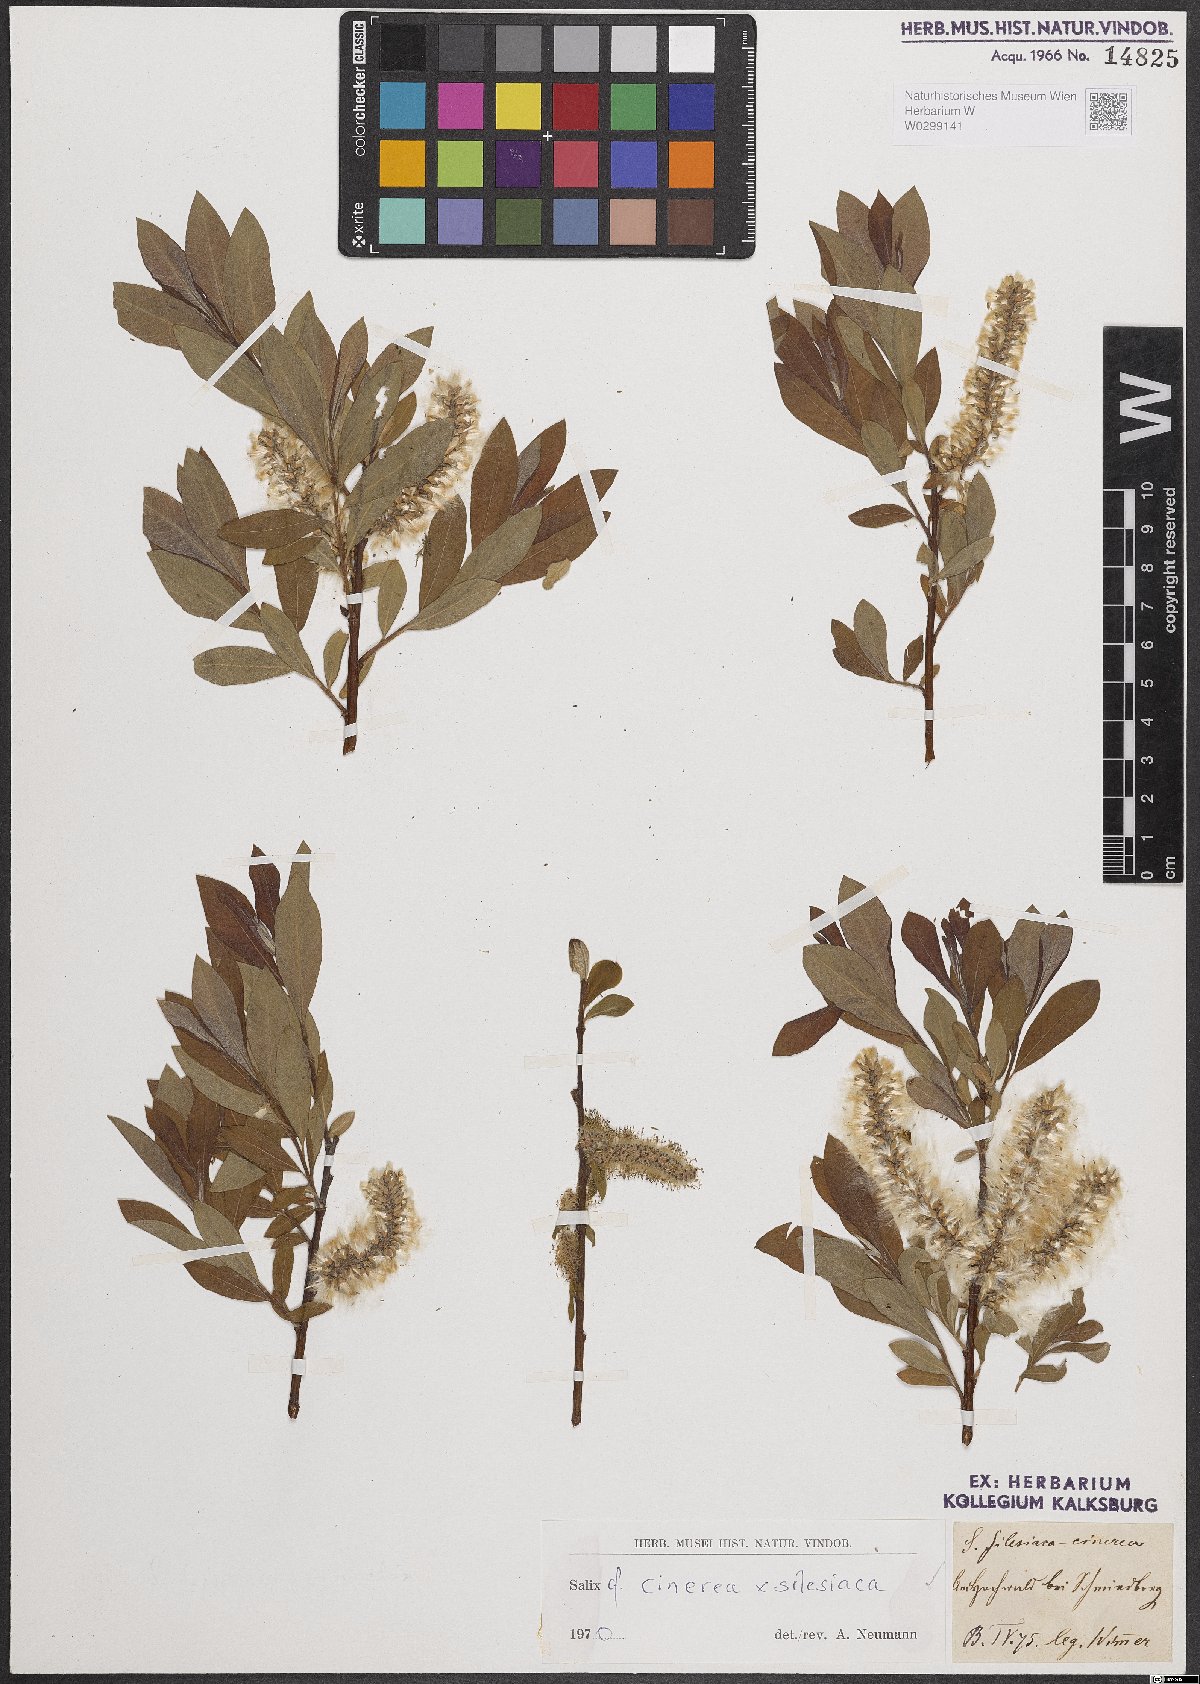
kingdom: Plantae
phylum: Tracheophyta
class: Magnoliopsida
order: Malpighiales
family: Salicaceae
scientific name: Salicaceae
